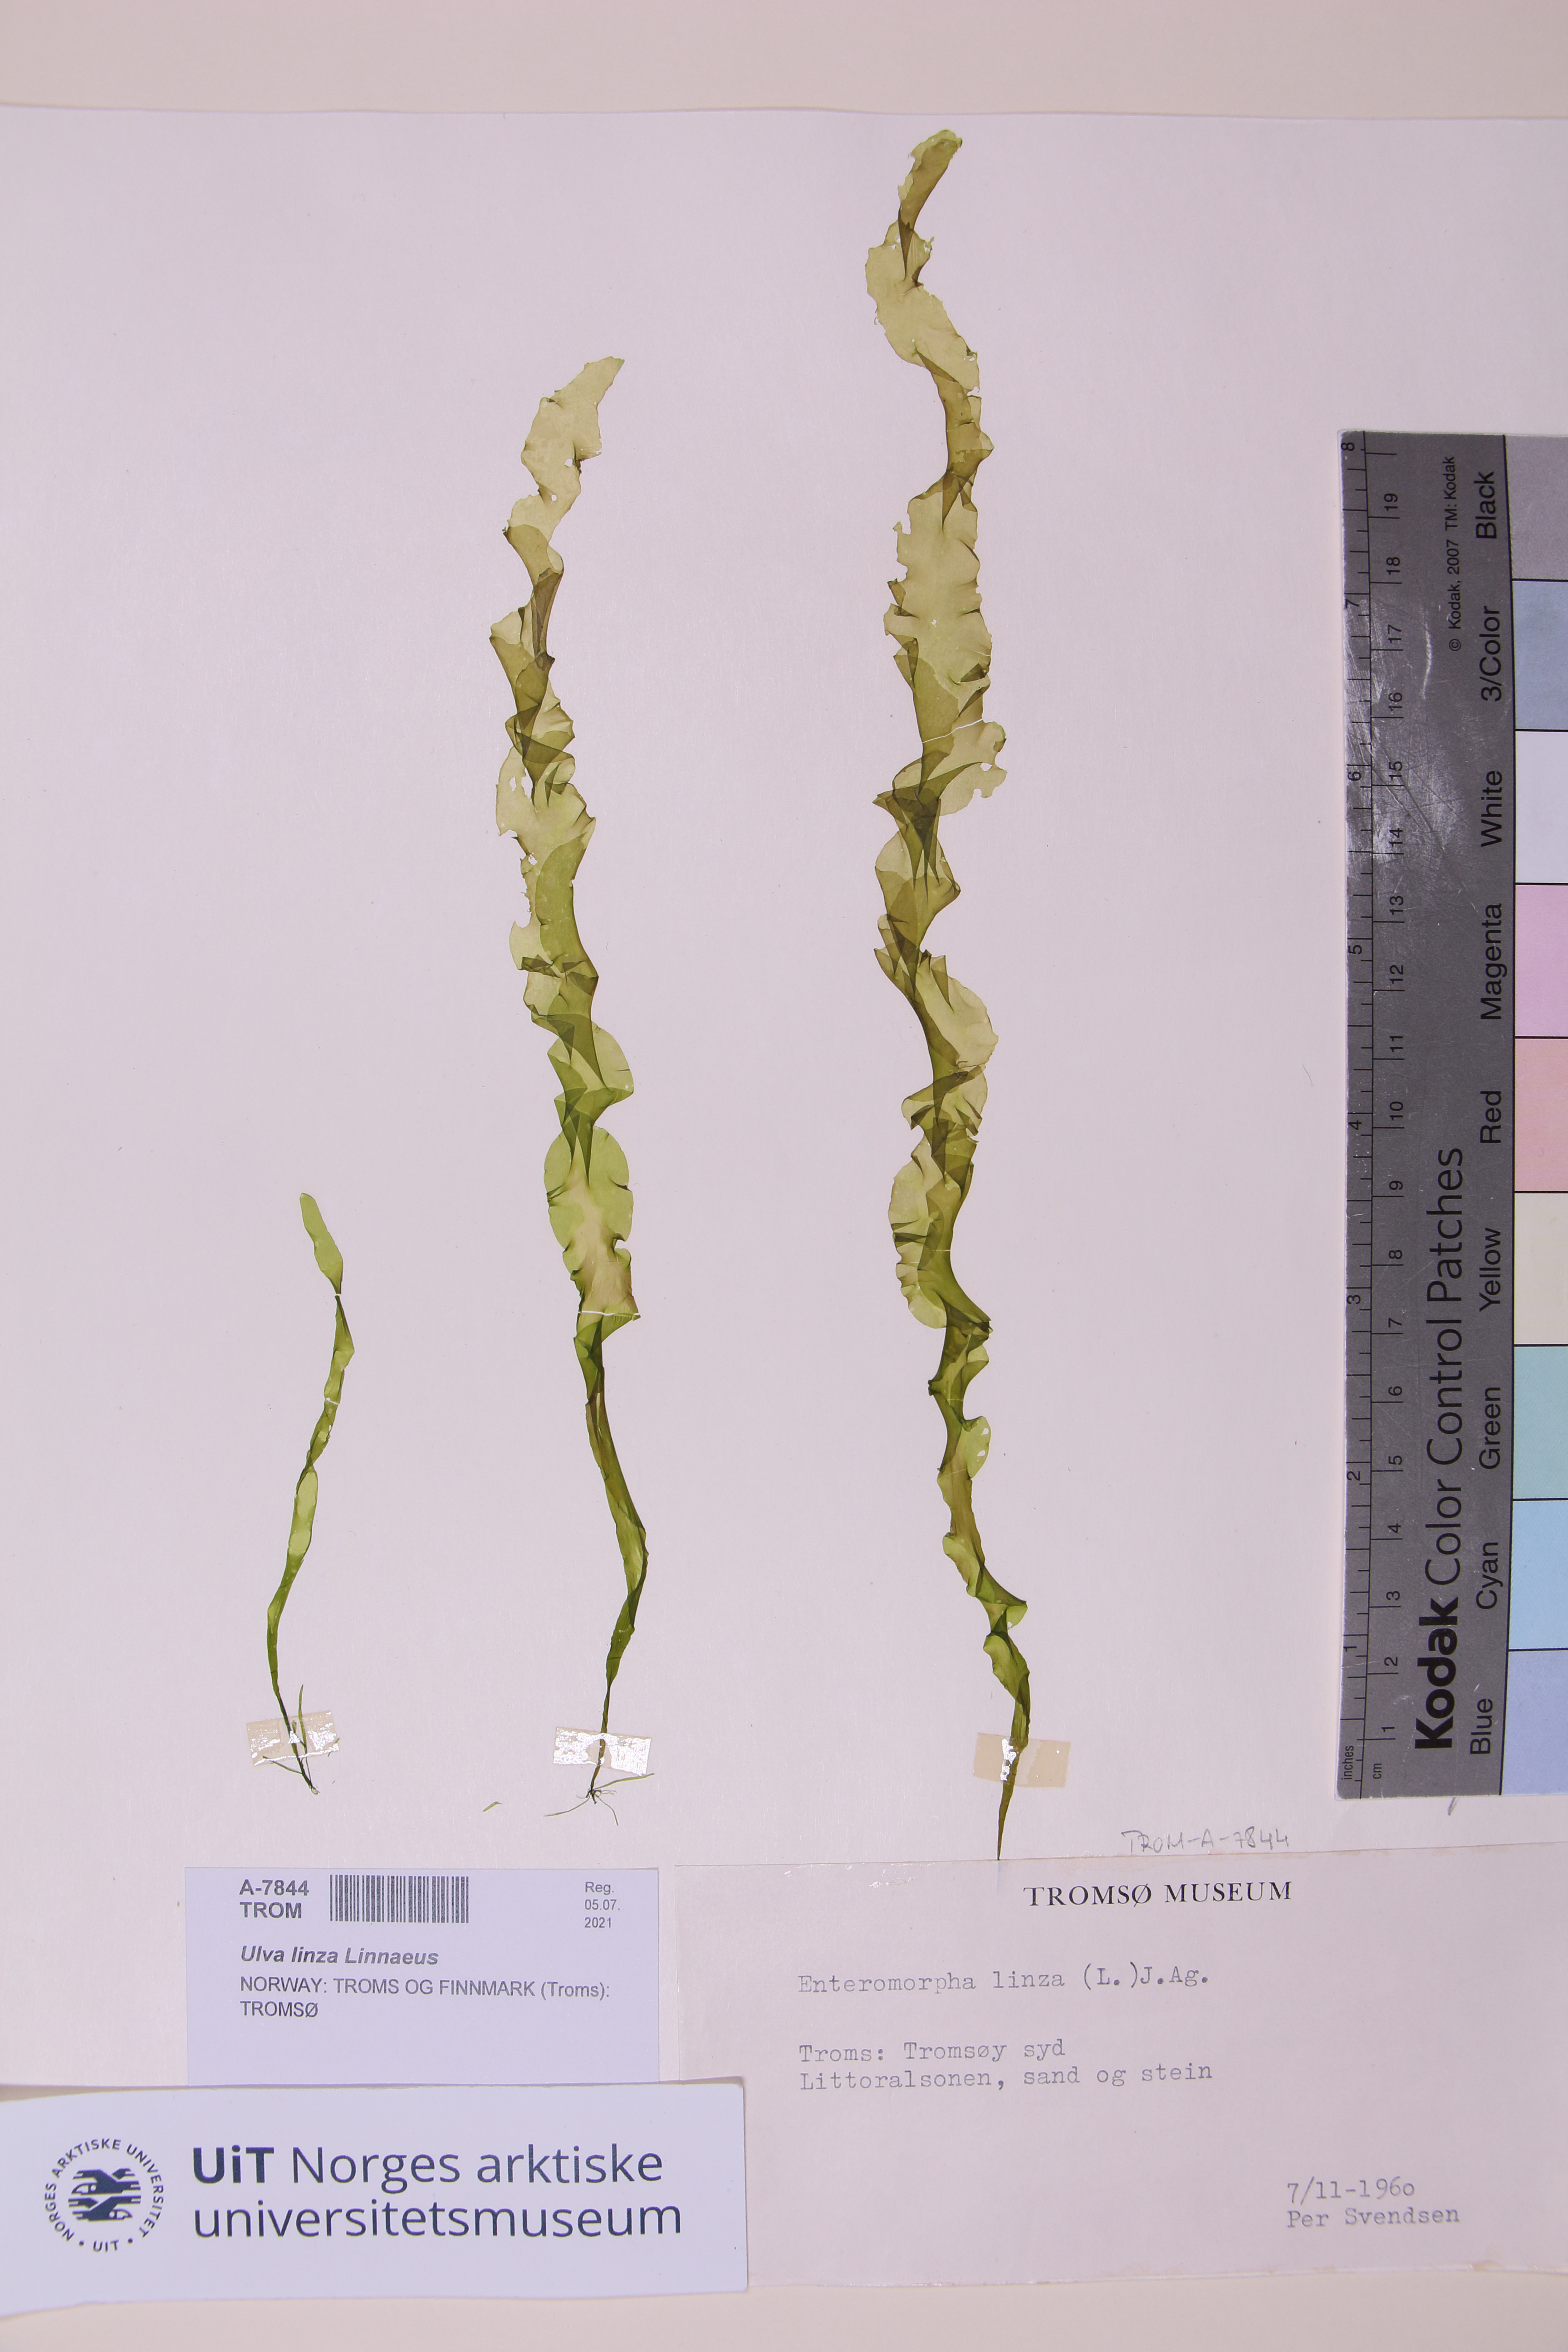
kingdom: Plantae
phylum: Chlorophyta
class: Ulvophyceae
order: Ulvales
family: Ulvaceae
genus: Ulva
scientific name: Ulva linza
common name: Green string lettuce
